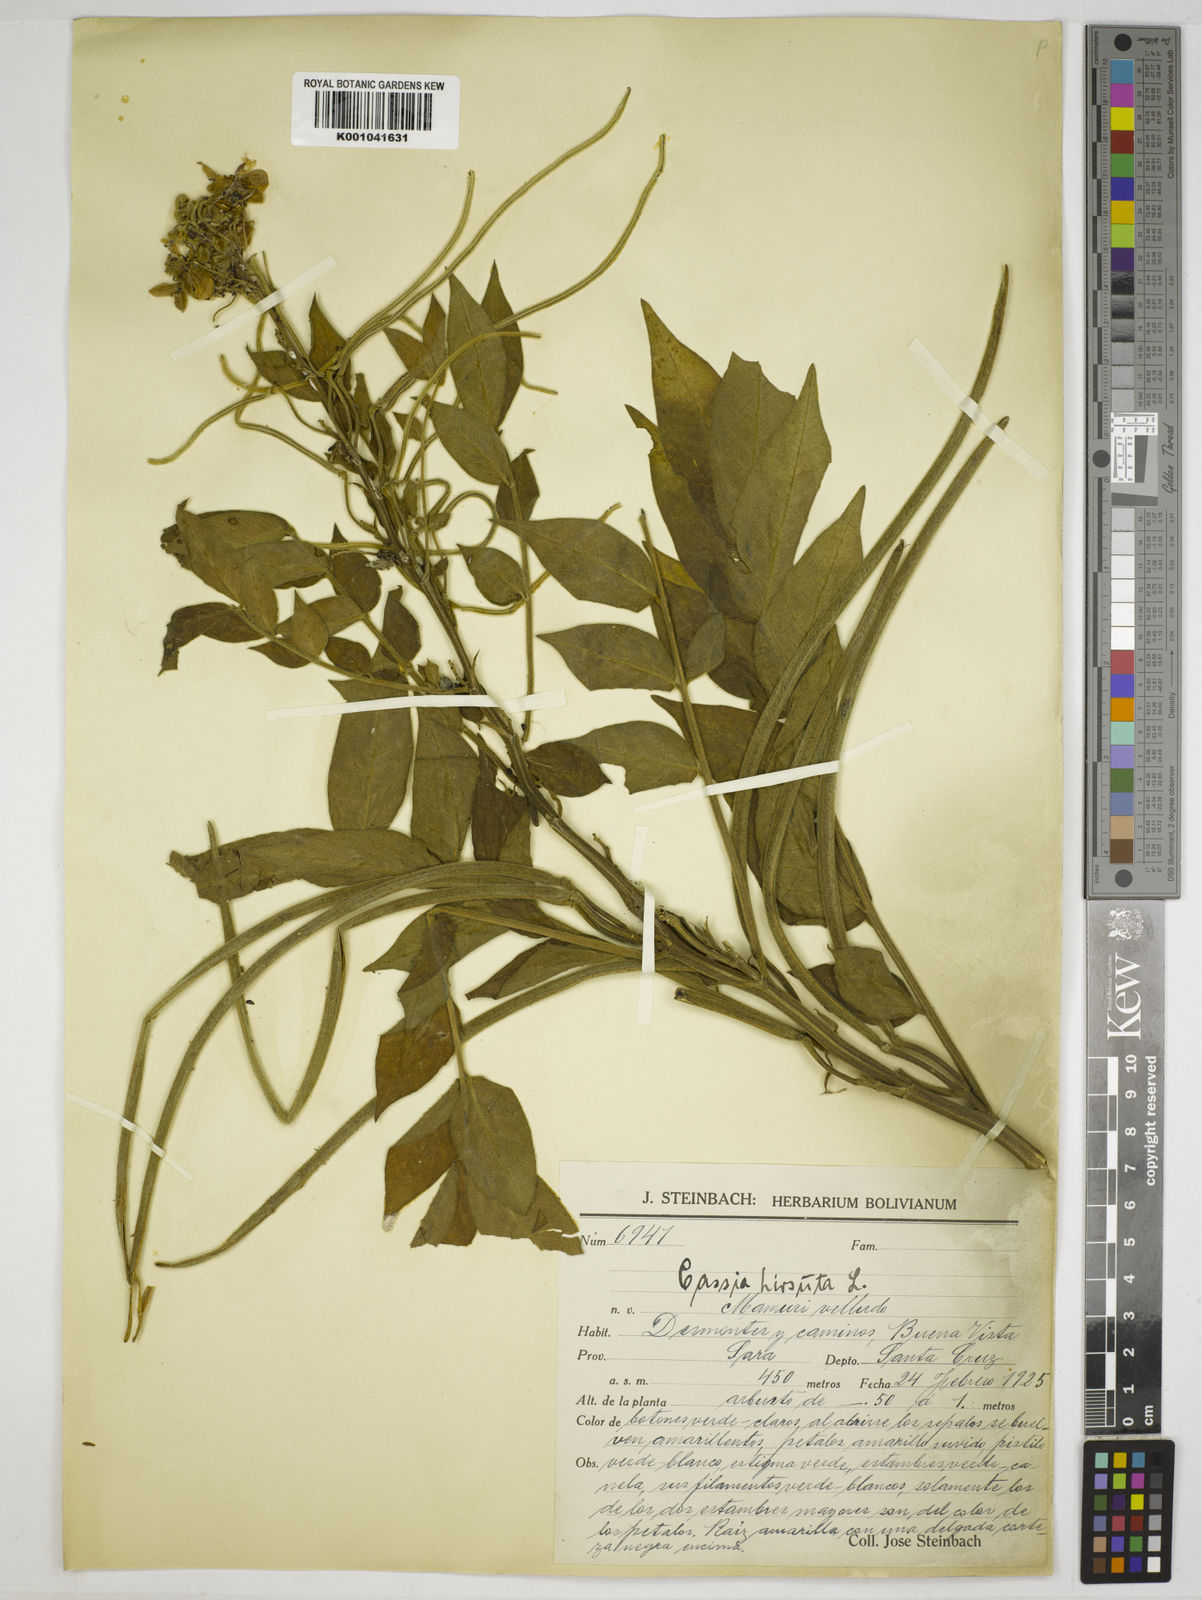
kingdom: Plantae
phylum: Tracheophyta
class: Magnoliopsida
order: Fabales
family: Fabaceae
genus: Senna
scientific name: Senna hirsuta
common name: Woolly senna
